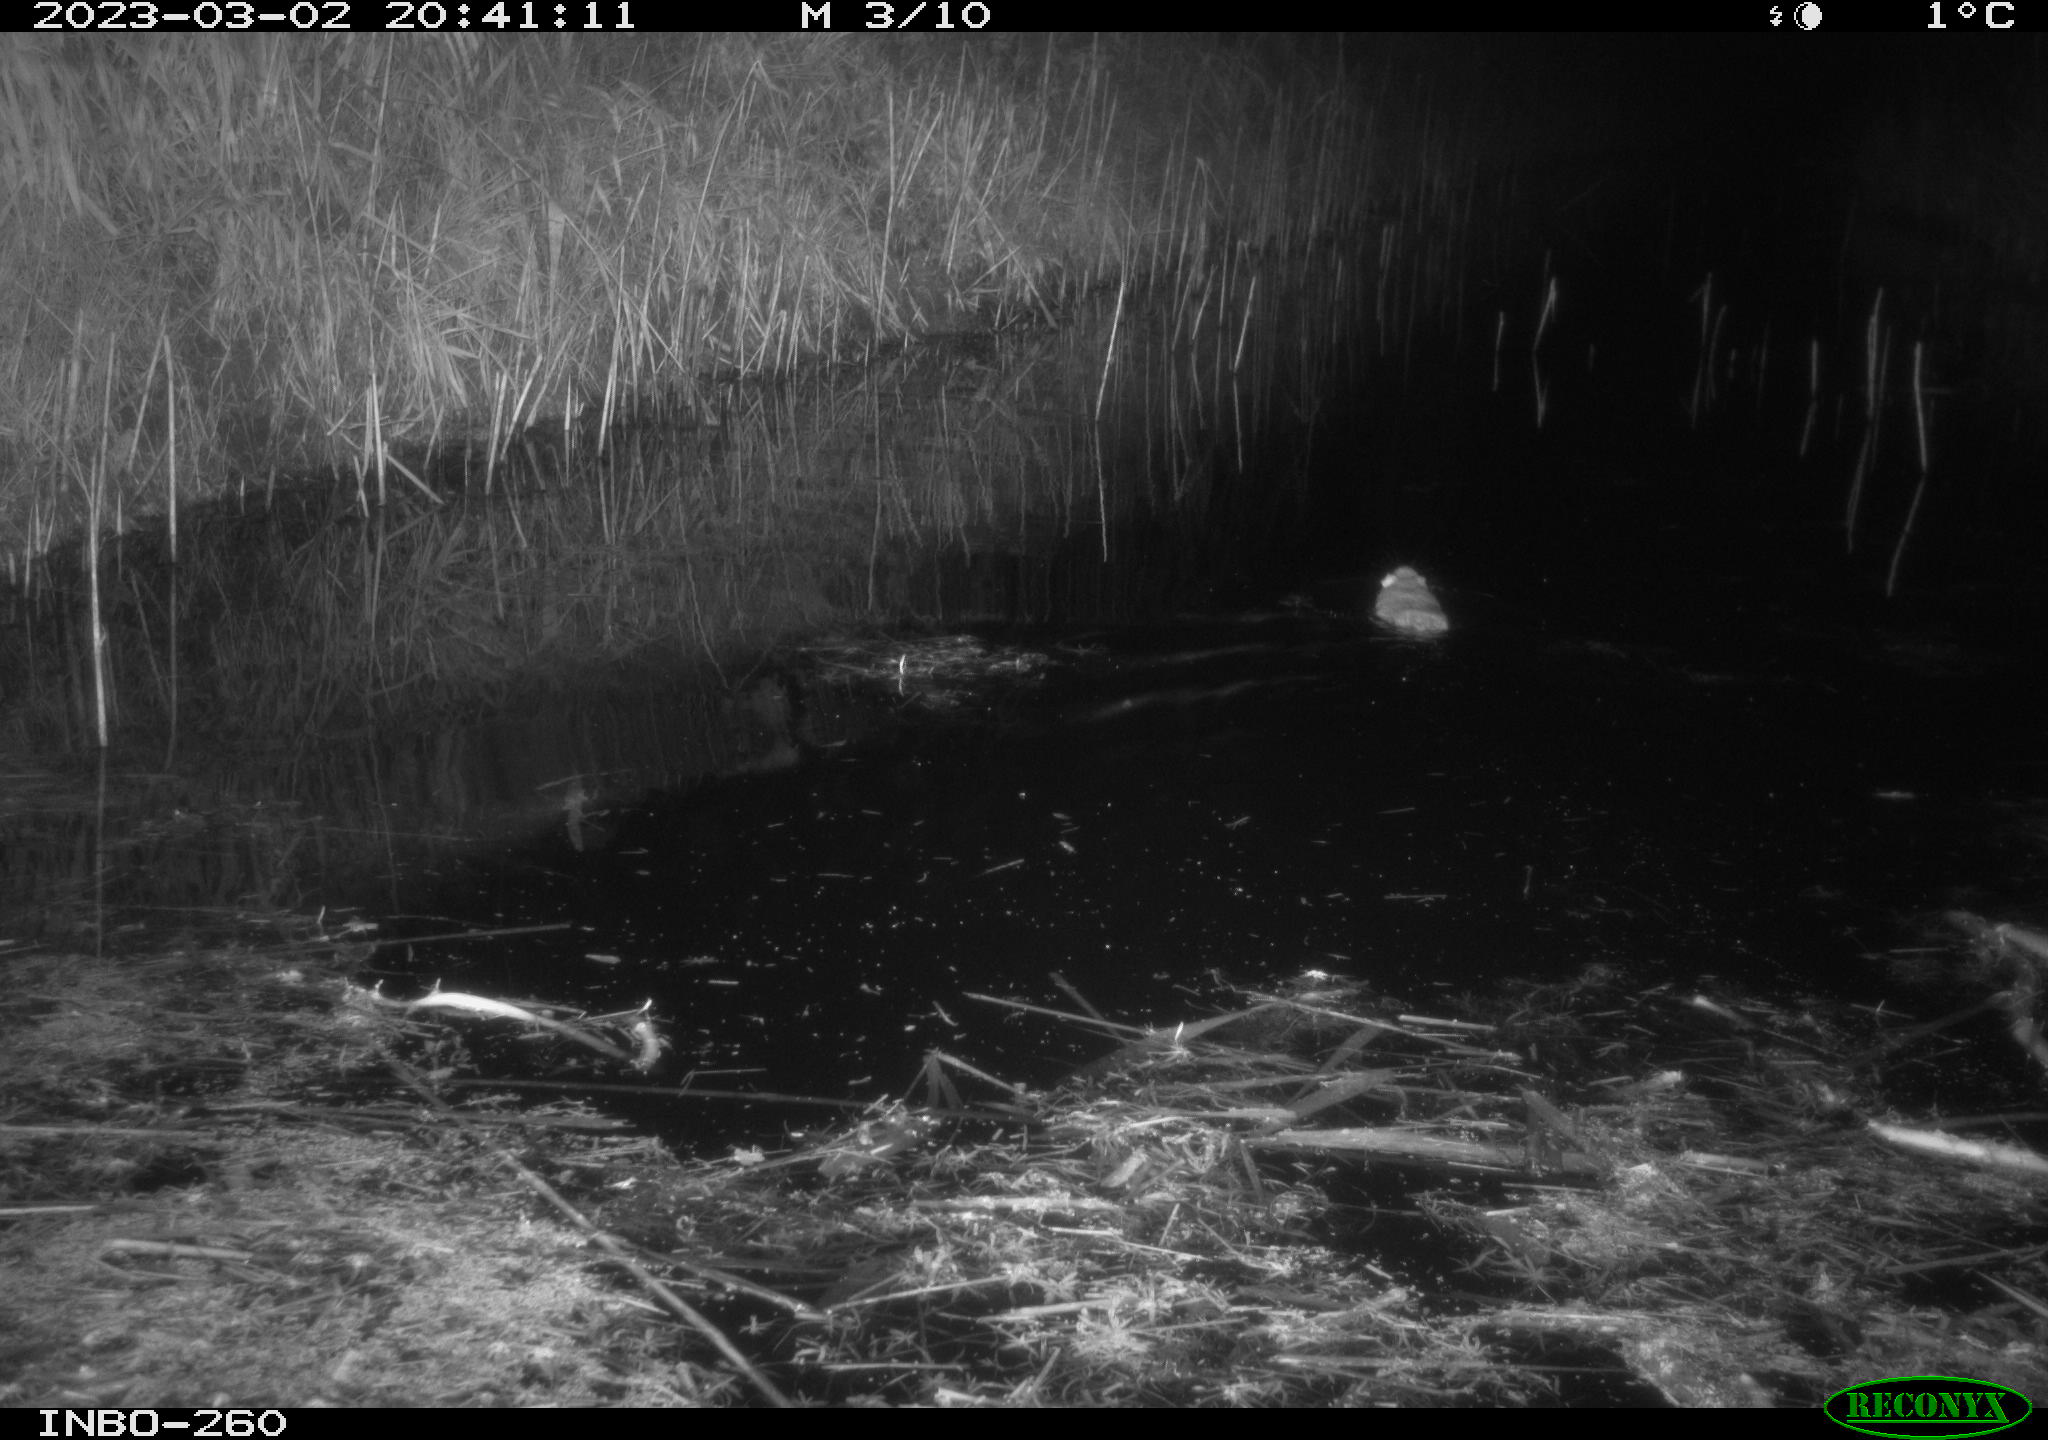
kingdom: Animalia
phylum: Chordata
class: Mammalia
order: Rodentia
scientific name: Rodentia
